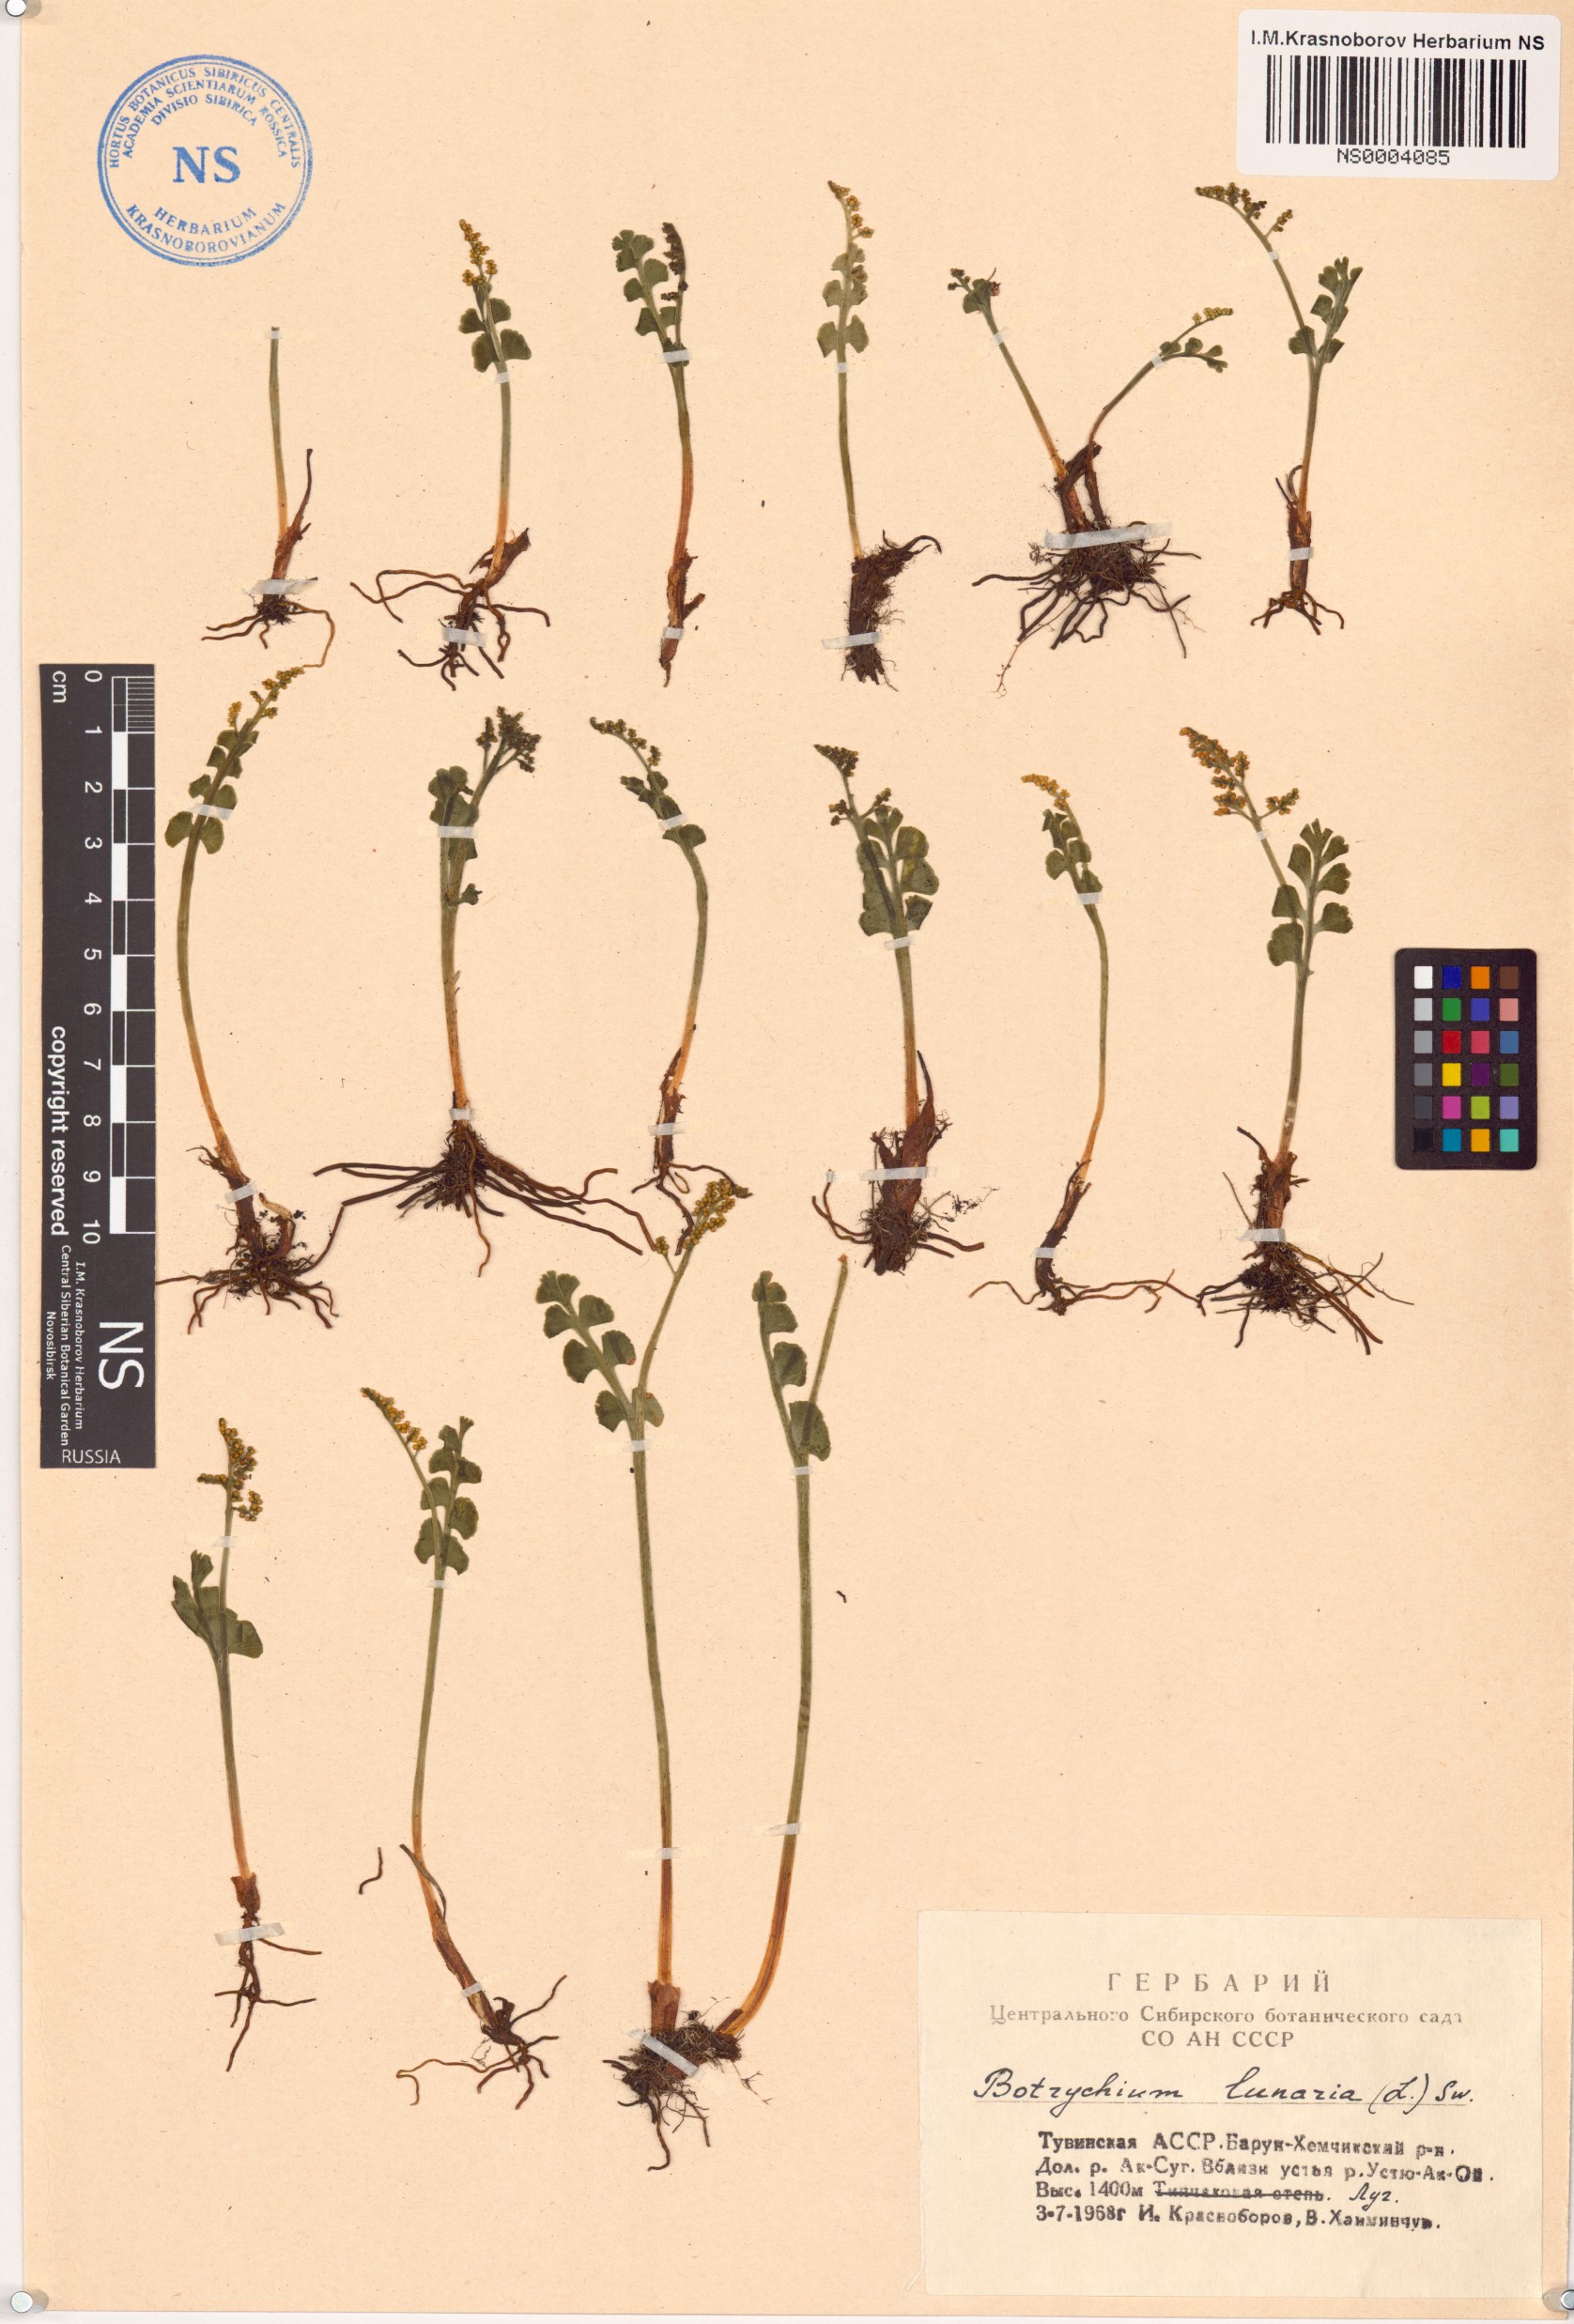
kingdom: Plantae
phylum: Tracheophyta
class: Polypodiopsida
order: Ophioglossales
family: Ophioglossaceae
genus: Botrychium
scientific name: Botrychium lunaria
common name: Moonwort
